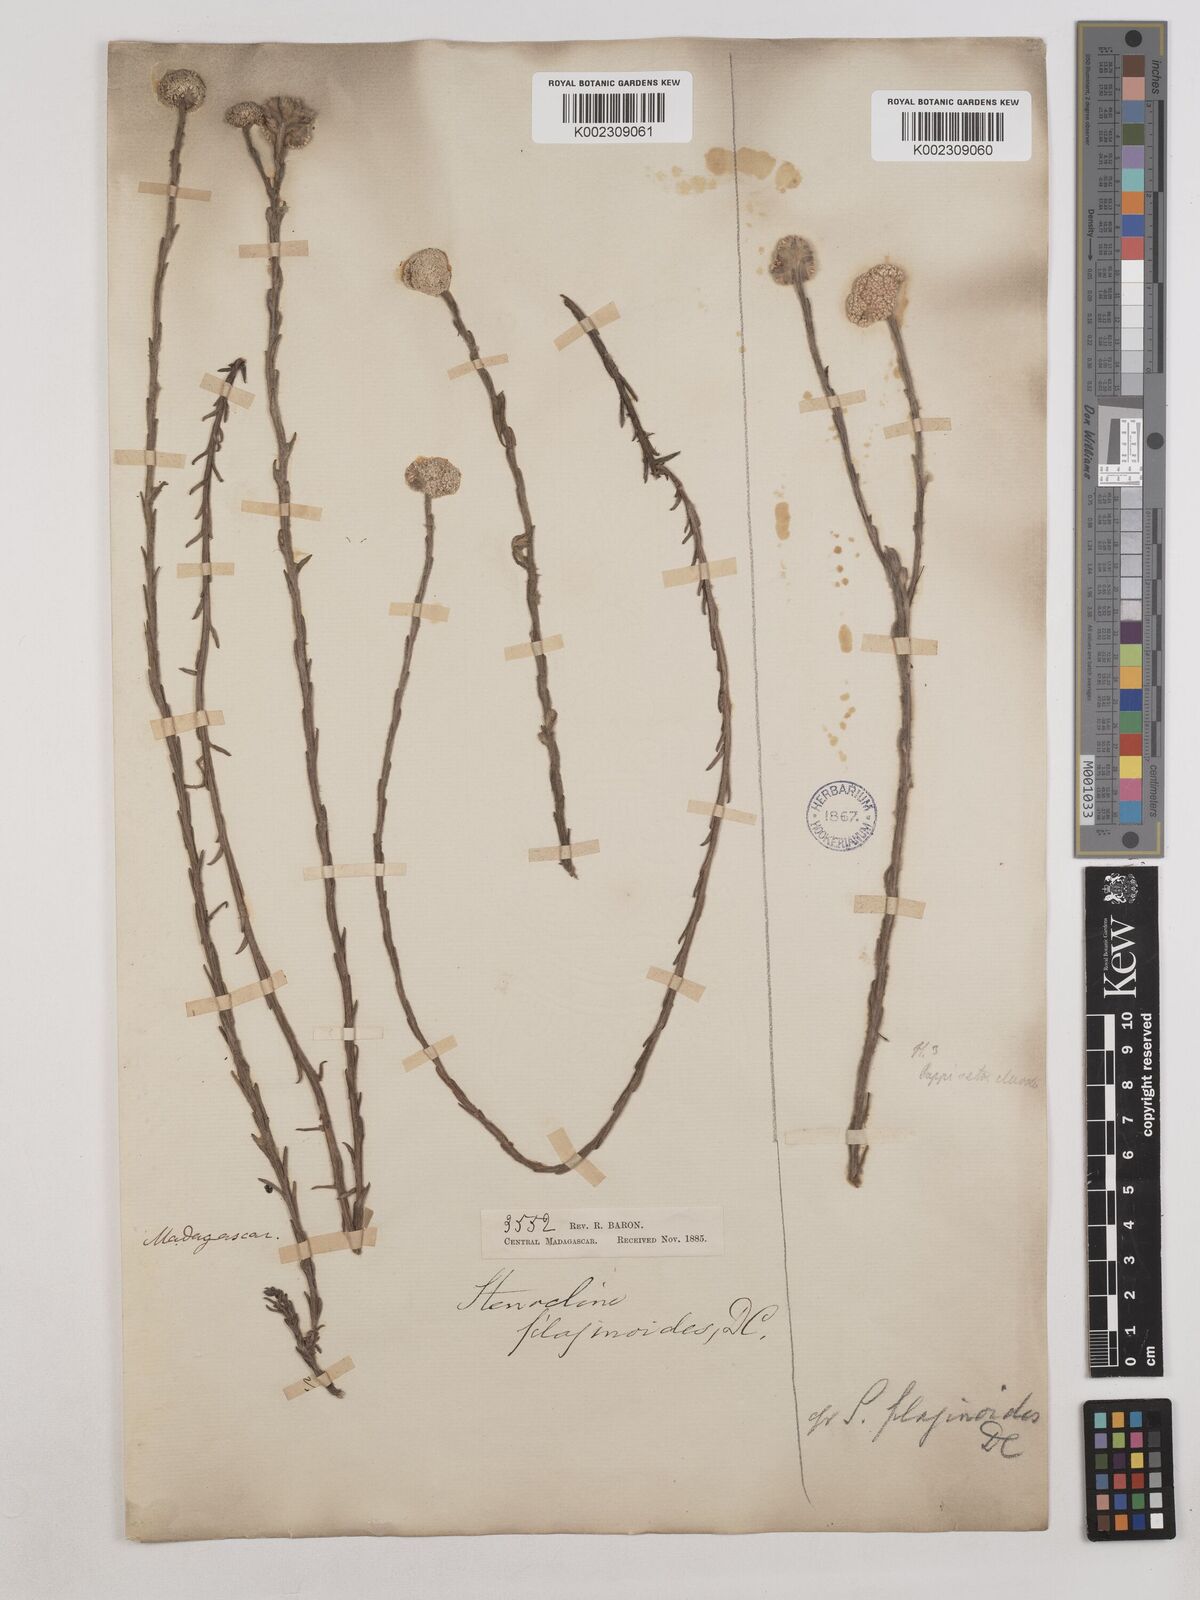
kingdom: Plantae
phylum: Tracheophyta
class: Magnoliopsida
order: Asterales
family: Asteraceae
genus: Helichrysum
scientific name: Helichrysum filaginoides
